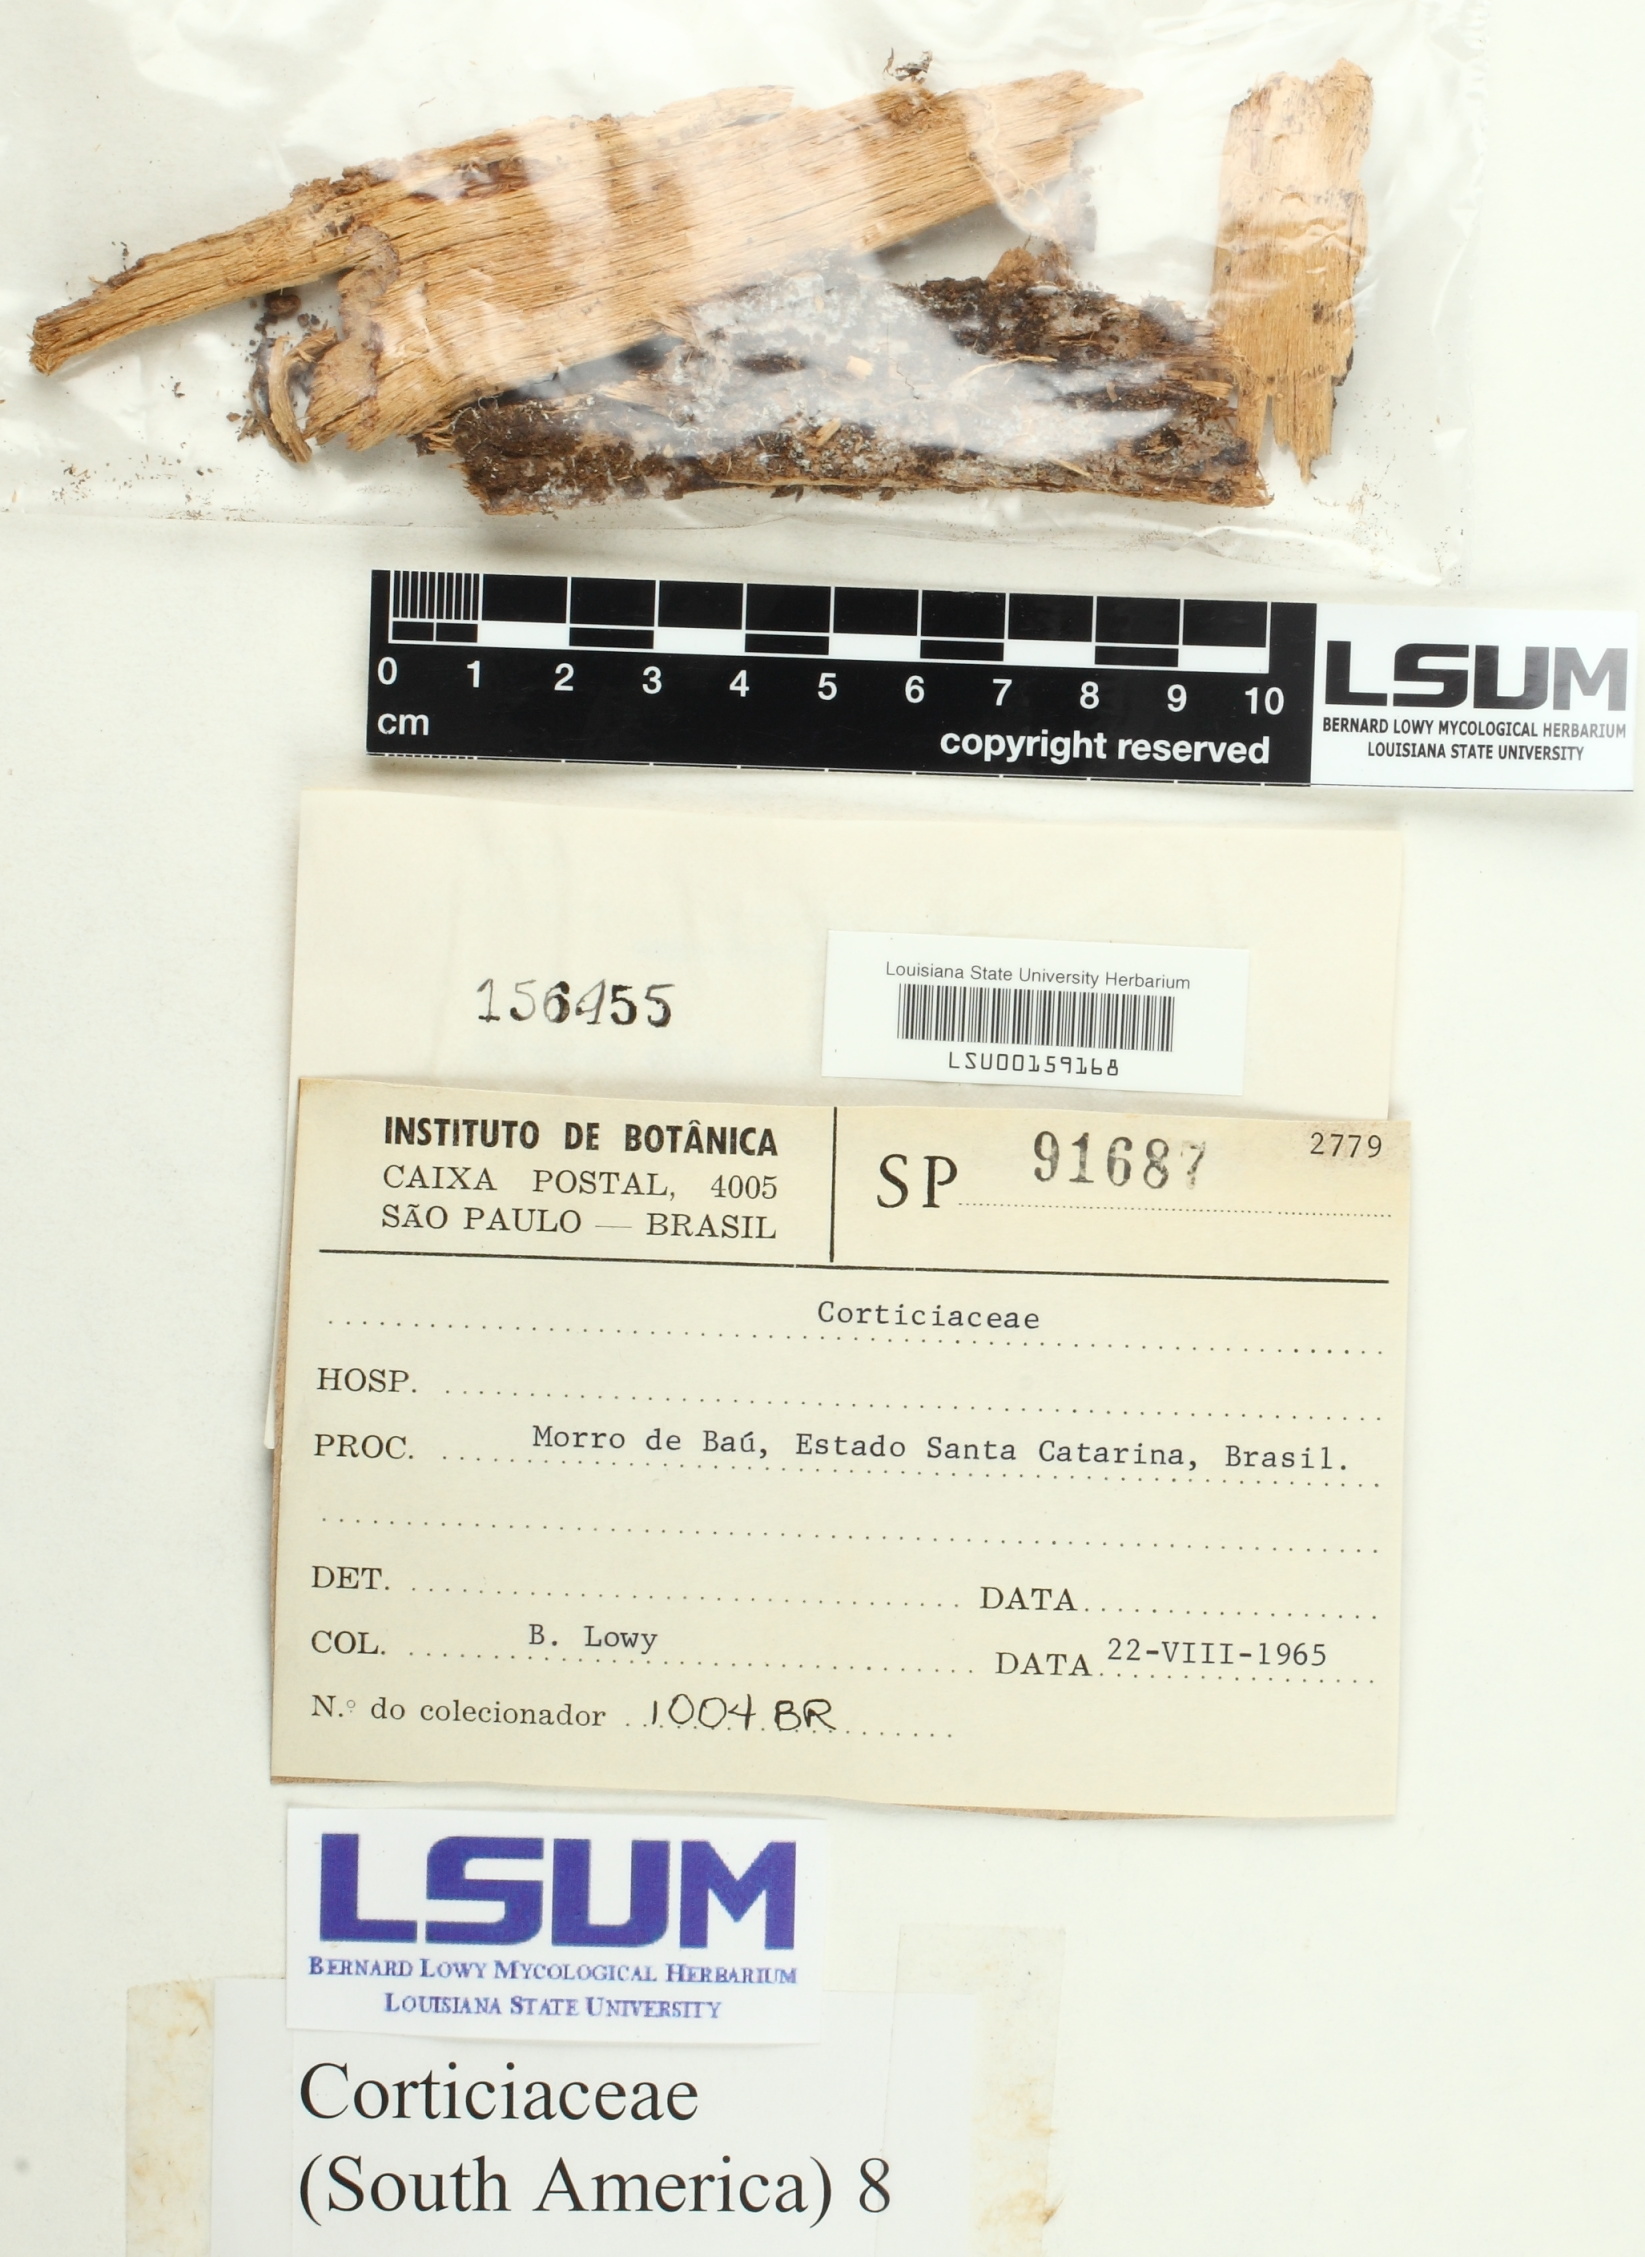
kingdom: Fungi
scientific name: Fungi
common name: Fungi
